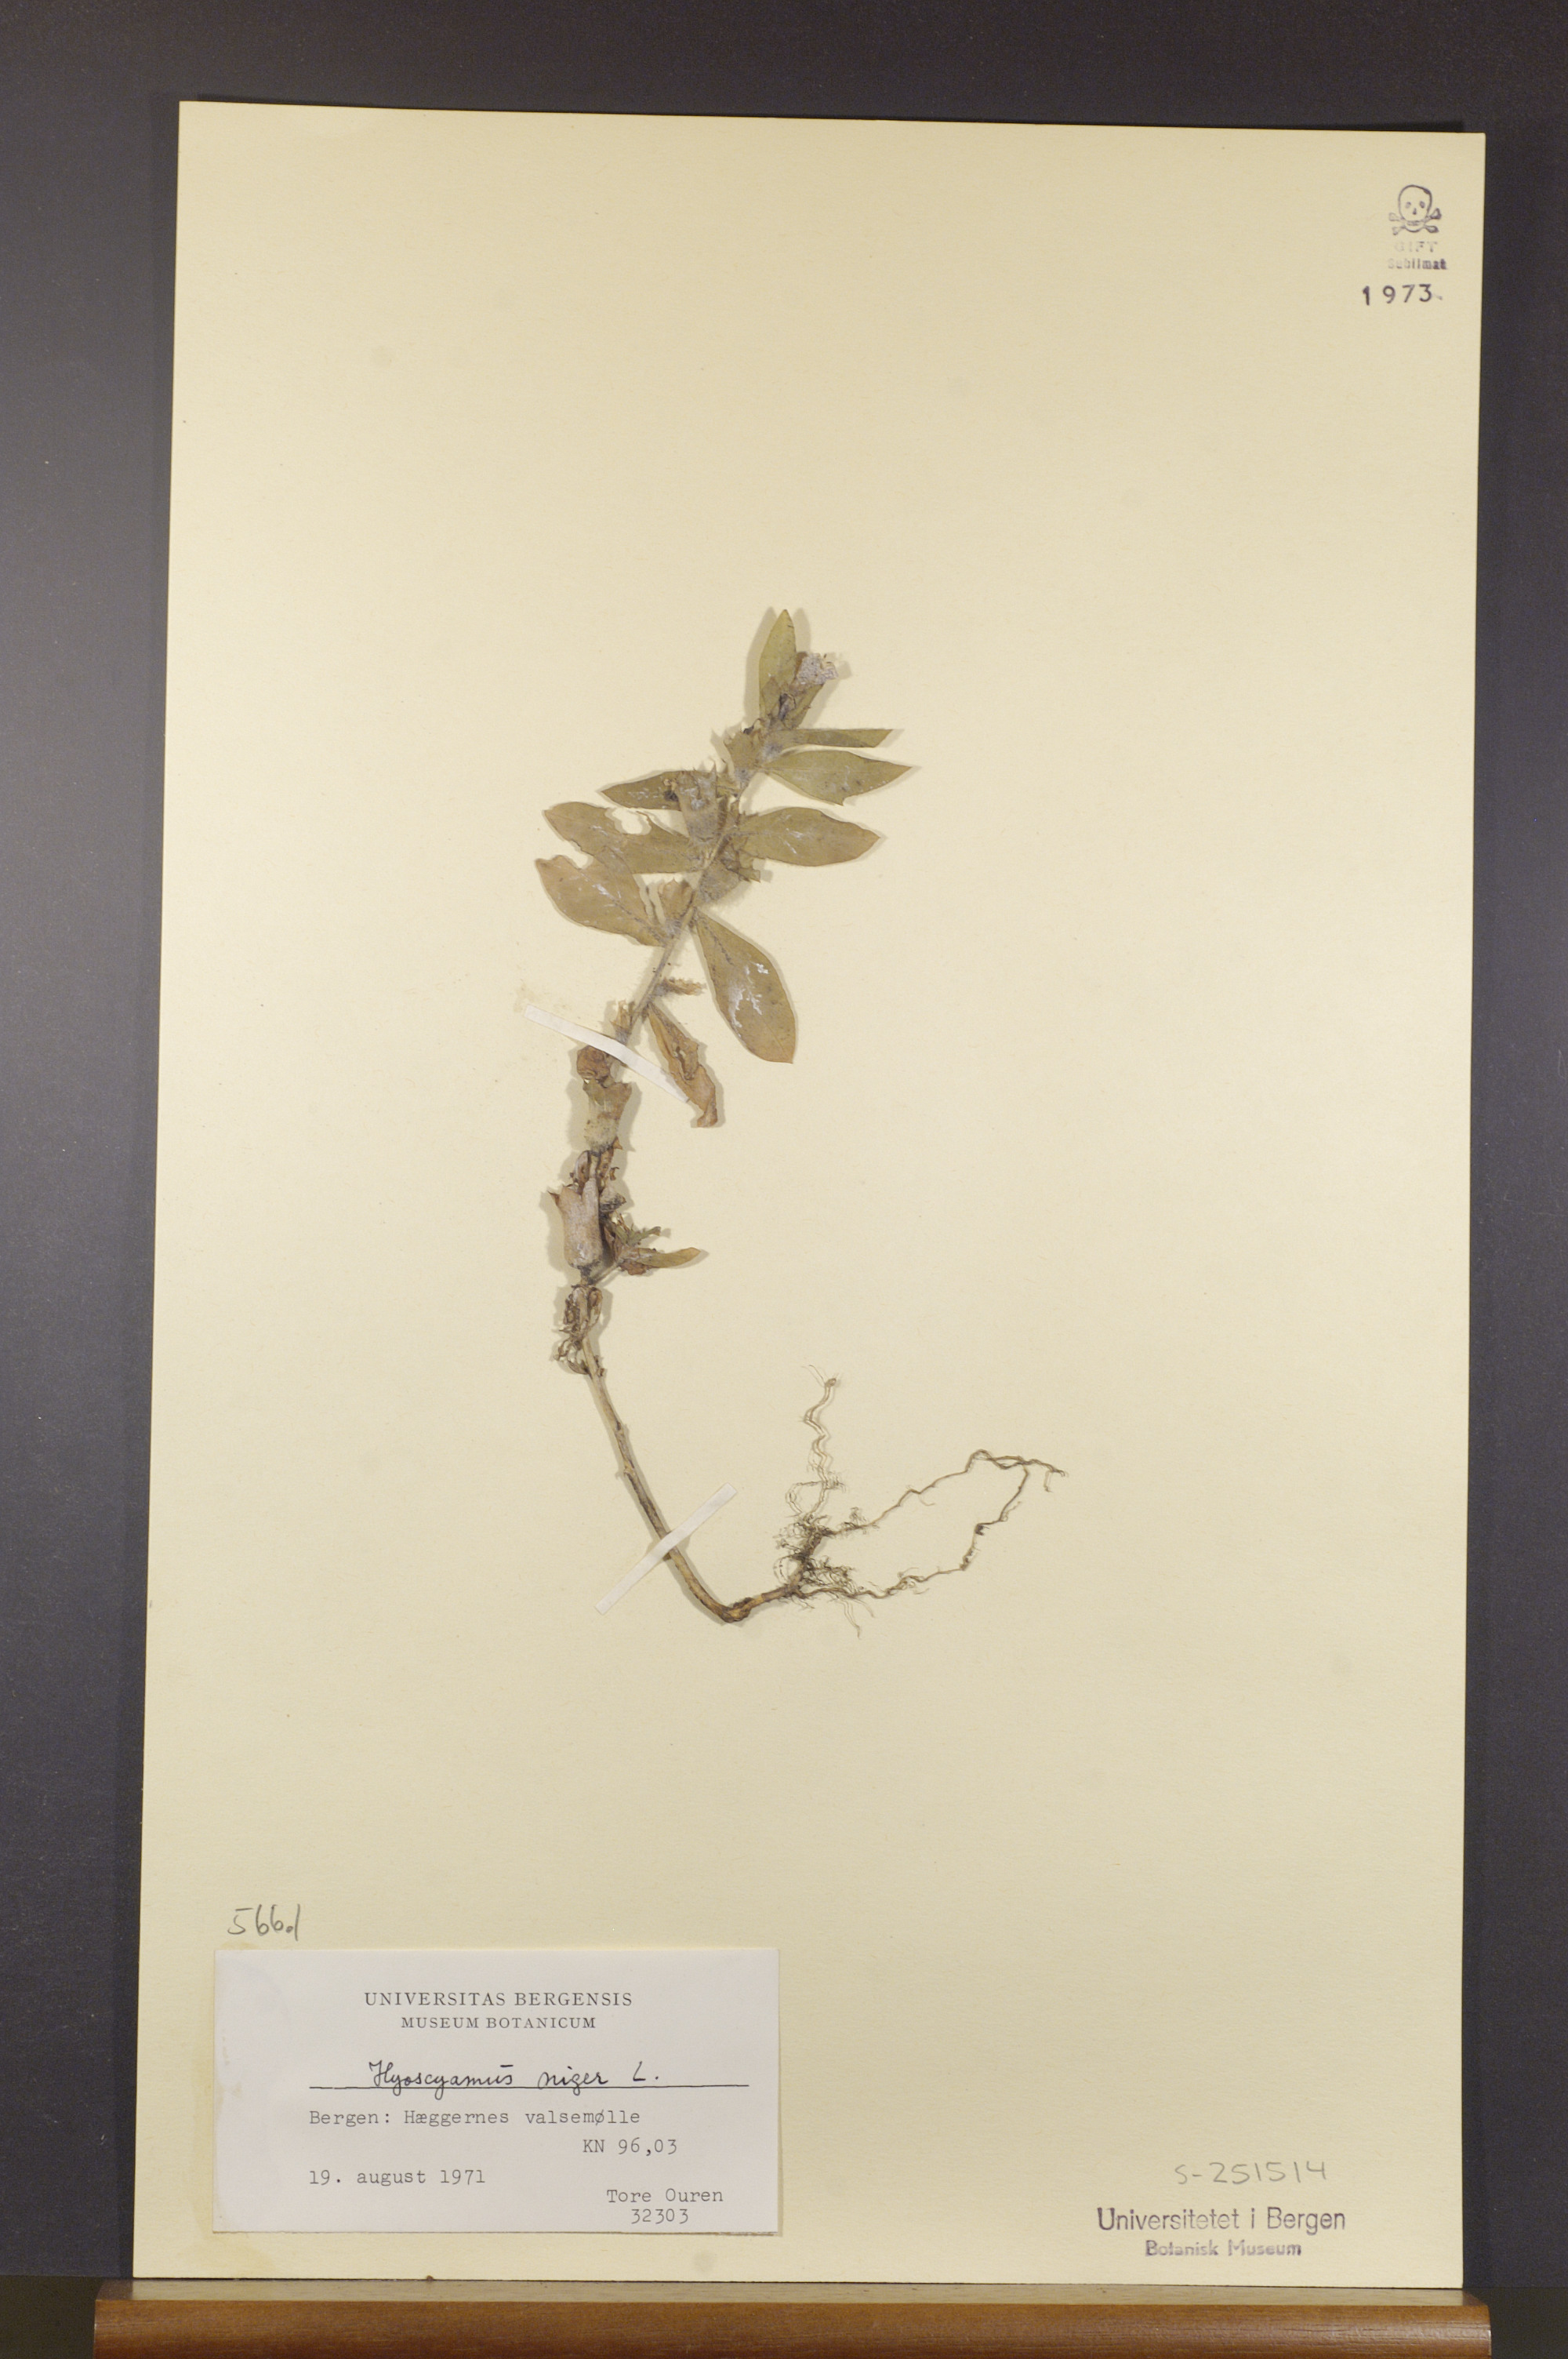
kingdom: Plantae
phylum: Tracheophyta
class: Magnoliopsida
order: Solanales
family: Solanaceae
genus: Hyoscyamus
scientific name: Hyoscyamus niger
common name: Henbane
